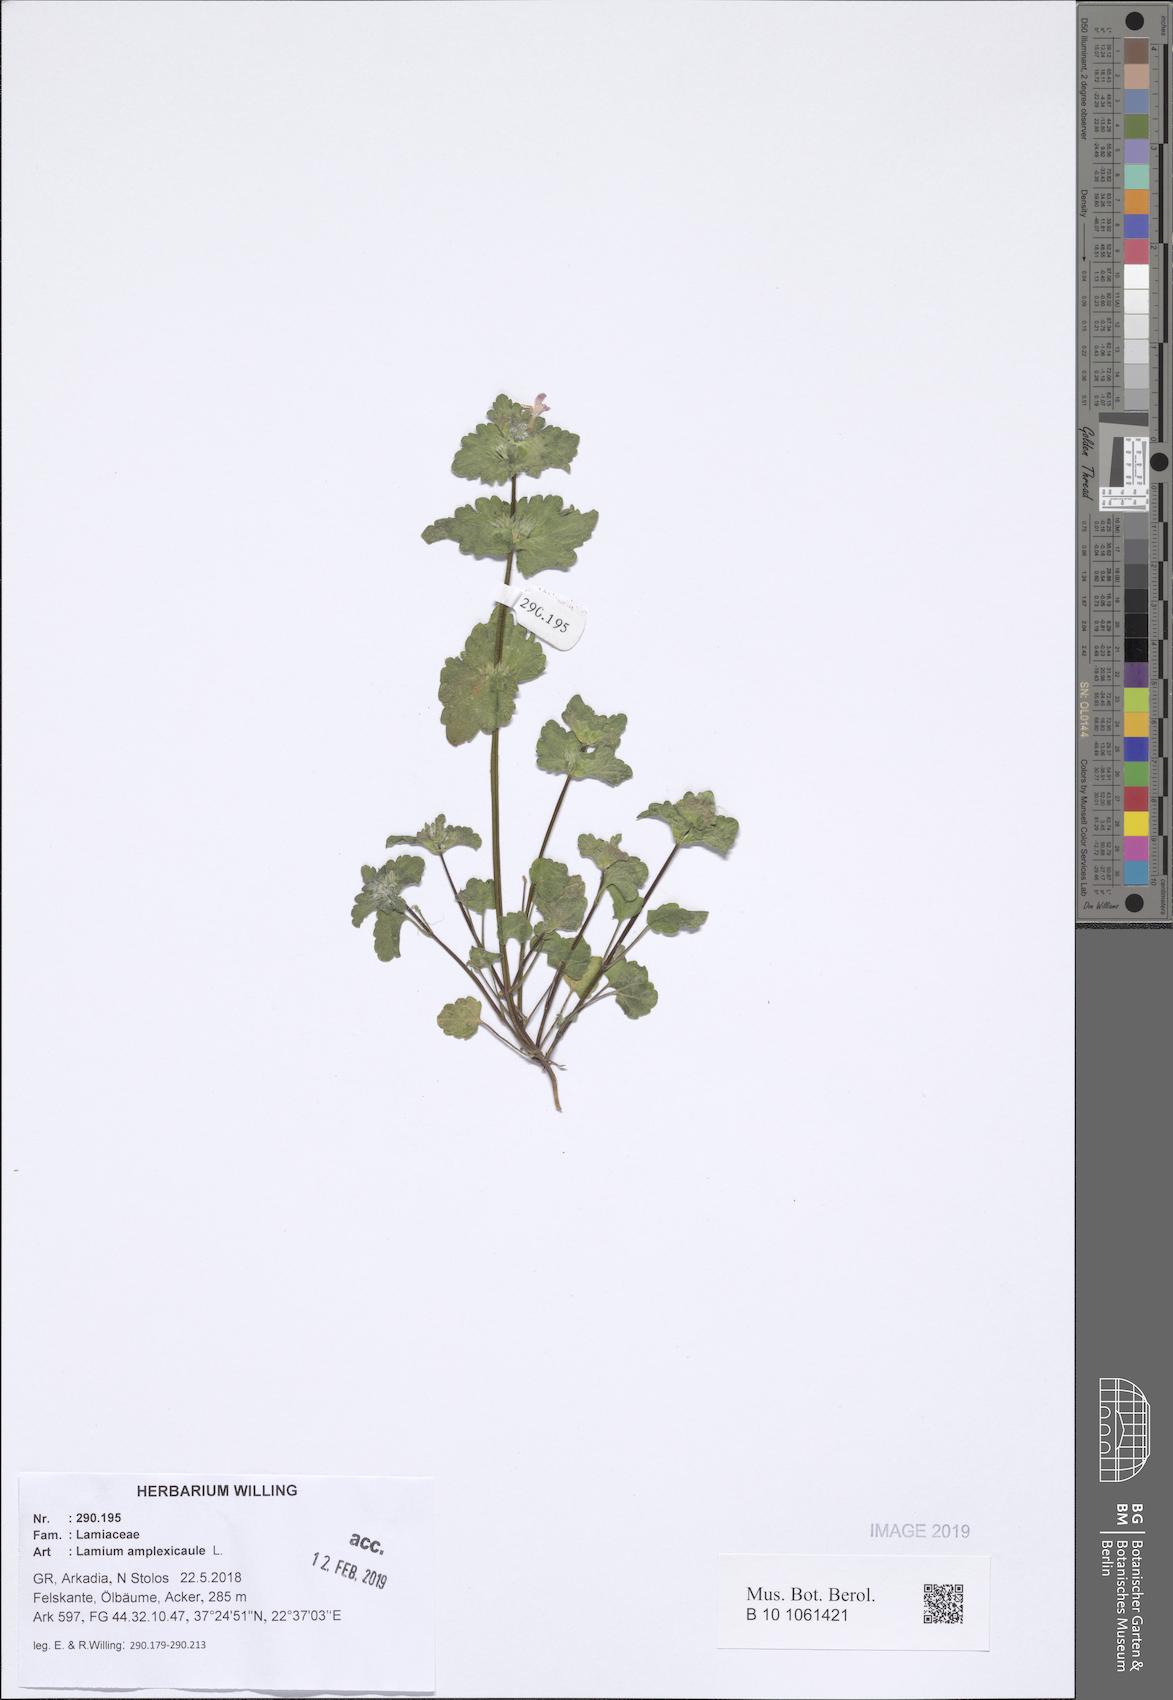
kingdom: Plantae
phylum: Tracheophyta
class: Magnoliopsida
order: Lamiales
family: Lamiaceae
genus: Lamium
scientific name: Lamium amplexicaule
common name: Henbit dead-nettle
